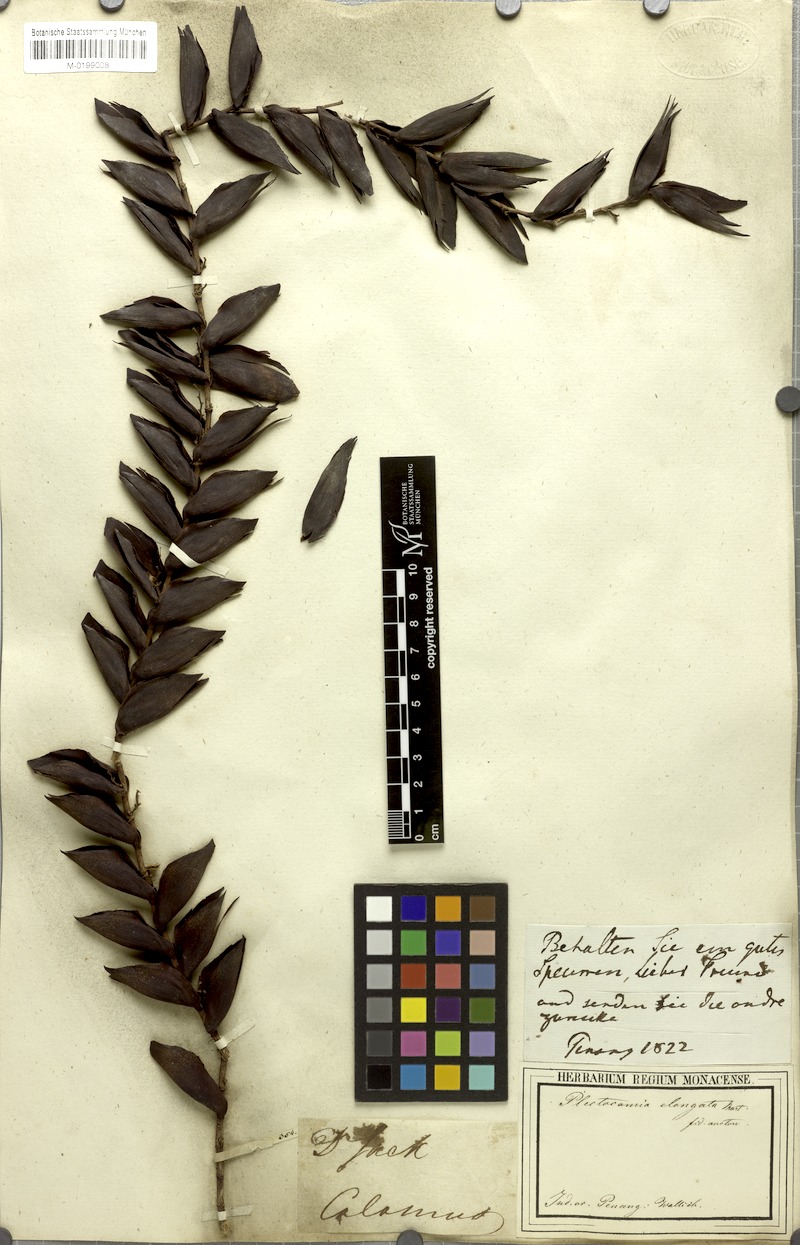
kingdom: Plantae
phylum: Tracheophyta
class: Liliopsida
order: Arecales
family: Arecaceae
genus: Plectocomia
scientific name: Plectocomia elongata
